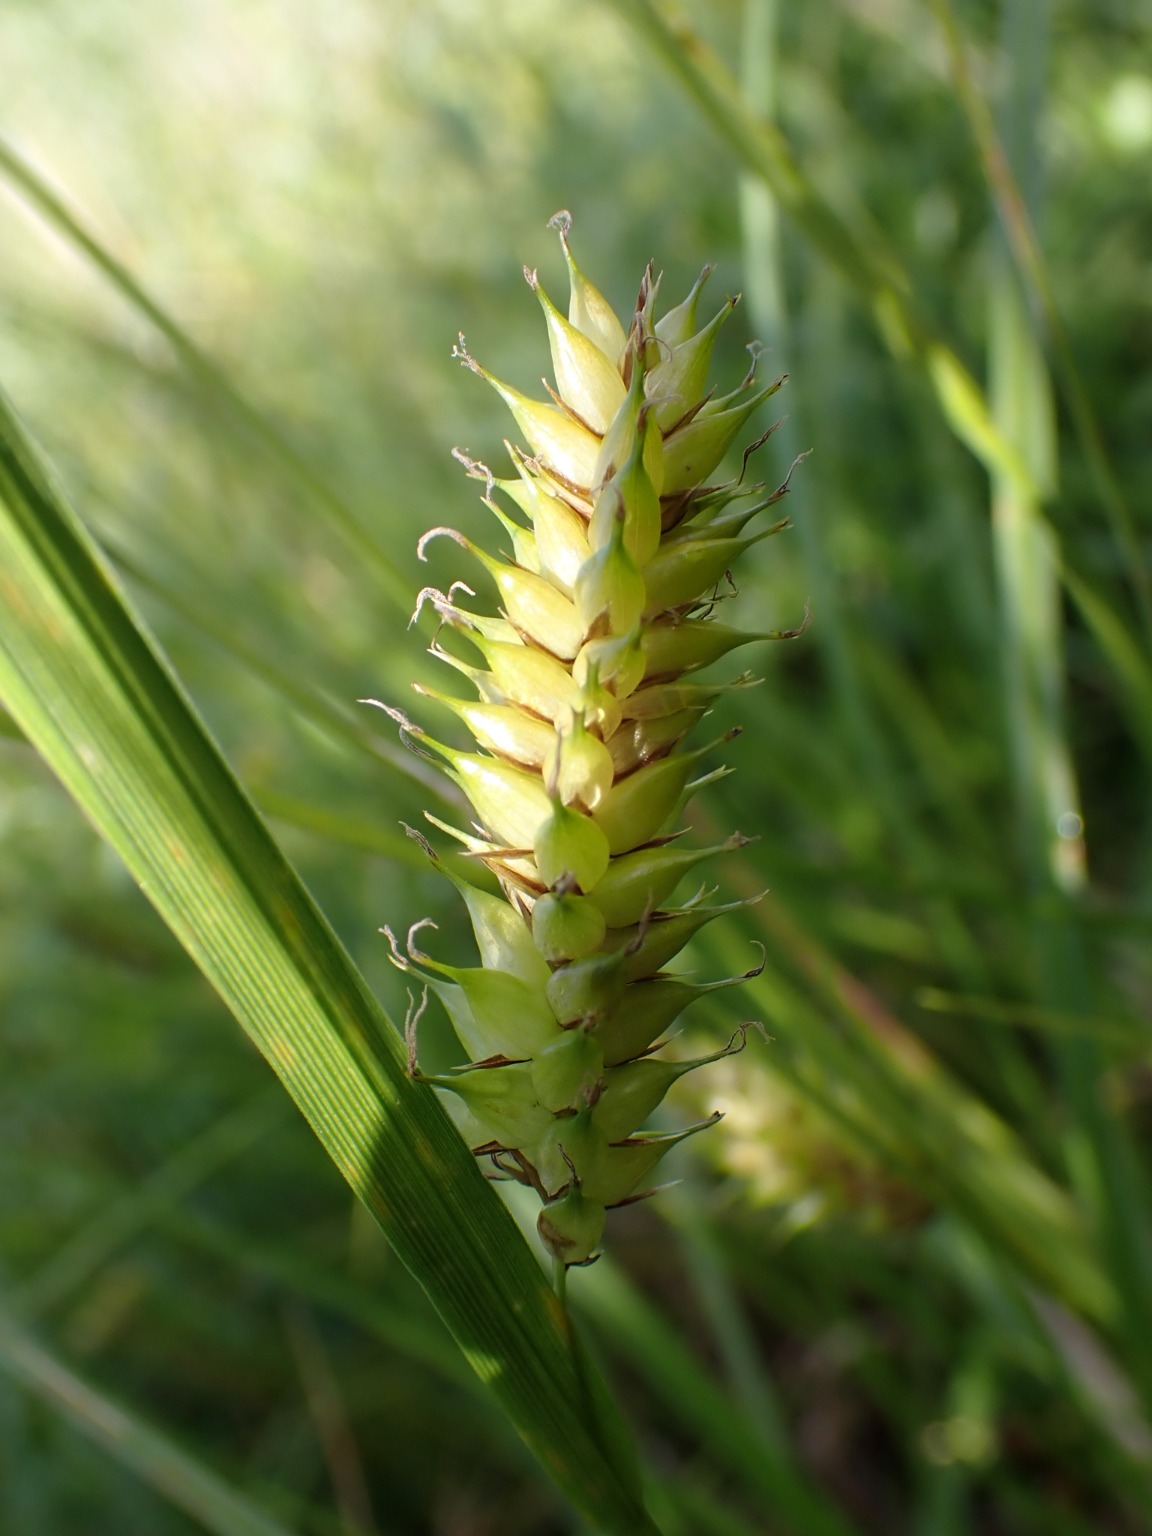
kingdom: Plantae
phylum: Tracheophyta
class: Liliopsida
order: Poales
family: Cyperaceae
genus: Carex
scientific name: Carex vesicaria
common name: Blære-star
